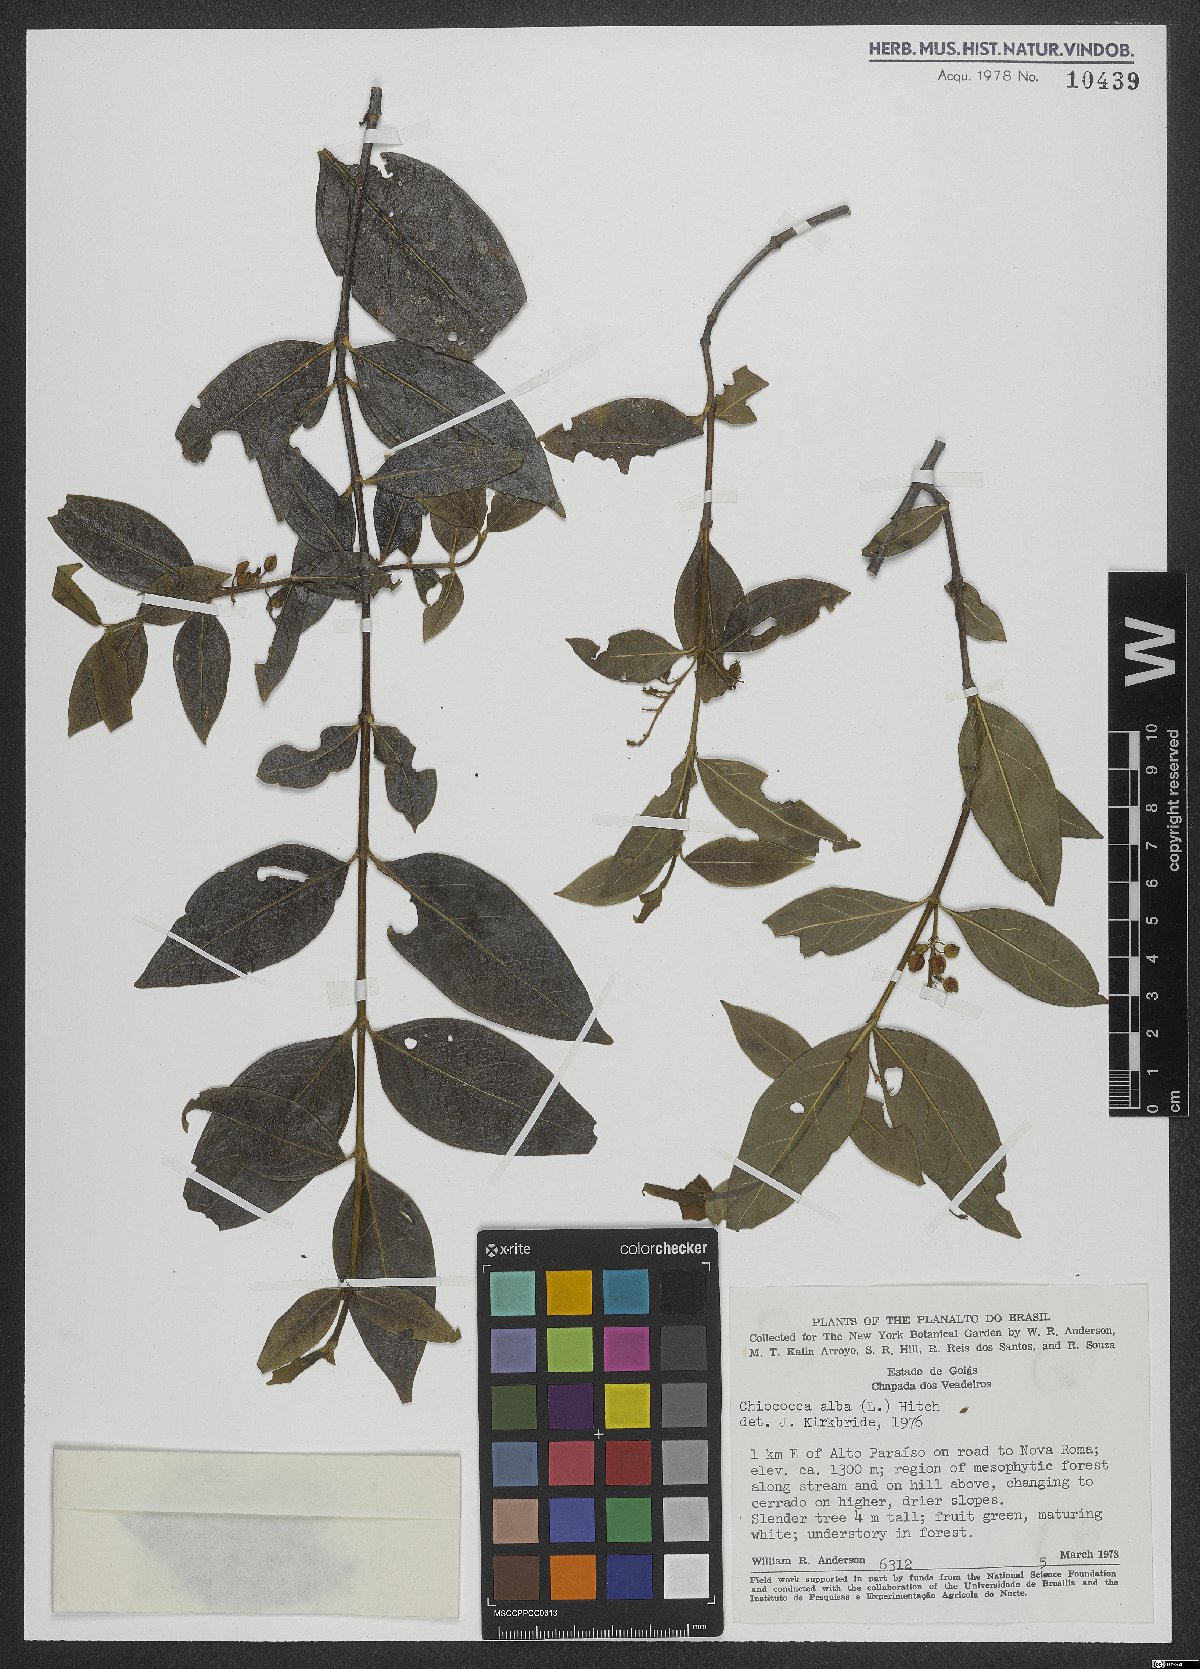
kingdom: Plantae
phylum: Tracheophyta
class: Magnoliopsida
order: Gentianales
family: Rubiaceae
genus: Chiococca
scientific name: Chiococca alba
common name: Snowberry
